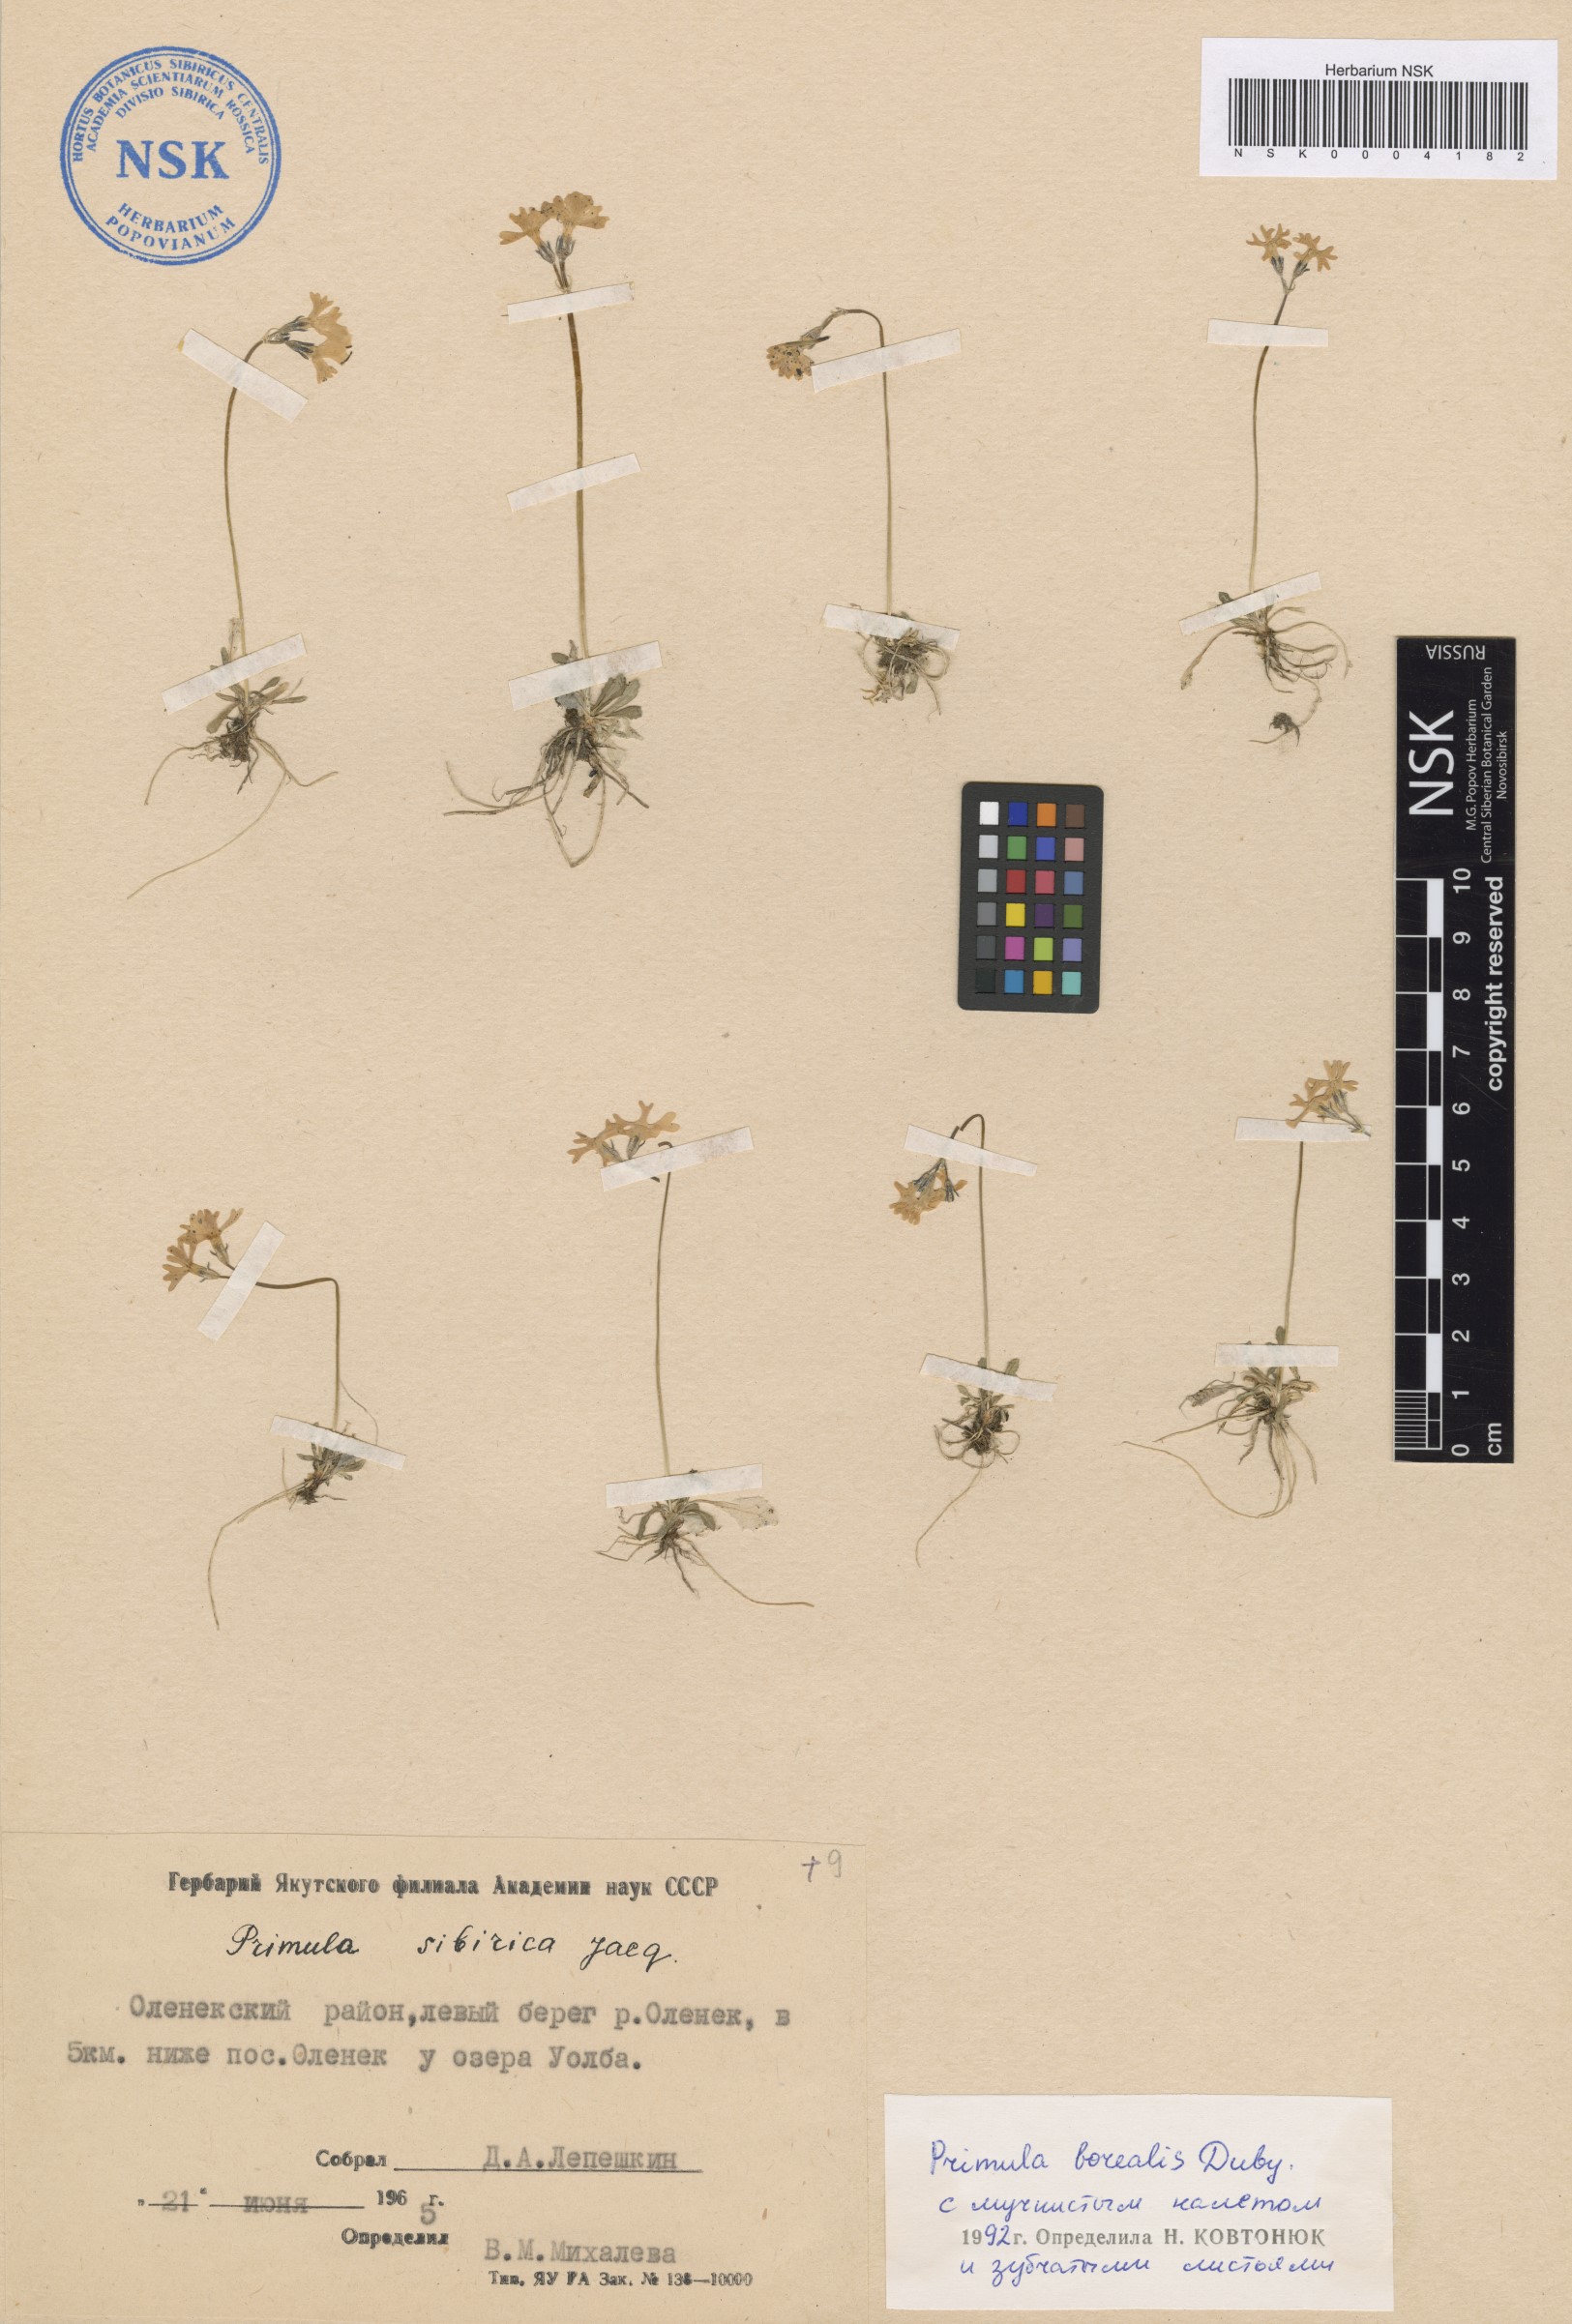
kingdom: Plantae
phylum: Tracheophyta
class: Magnoliopsida
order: Ericales
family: Primulaceae
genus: Primula
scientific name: Primula borealis
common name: Northern primrose
